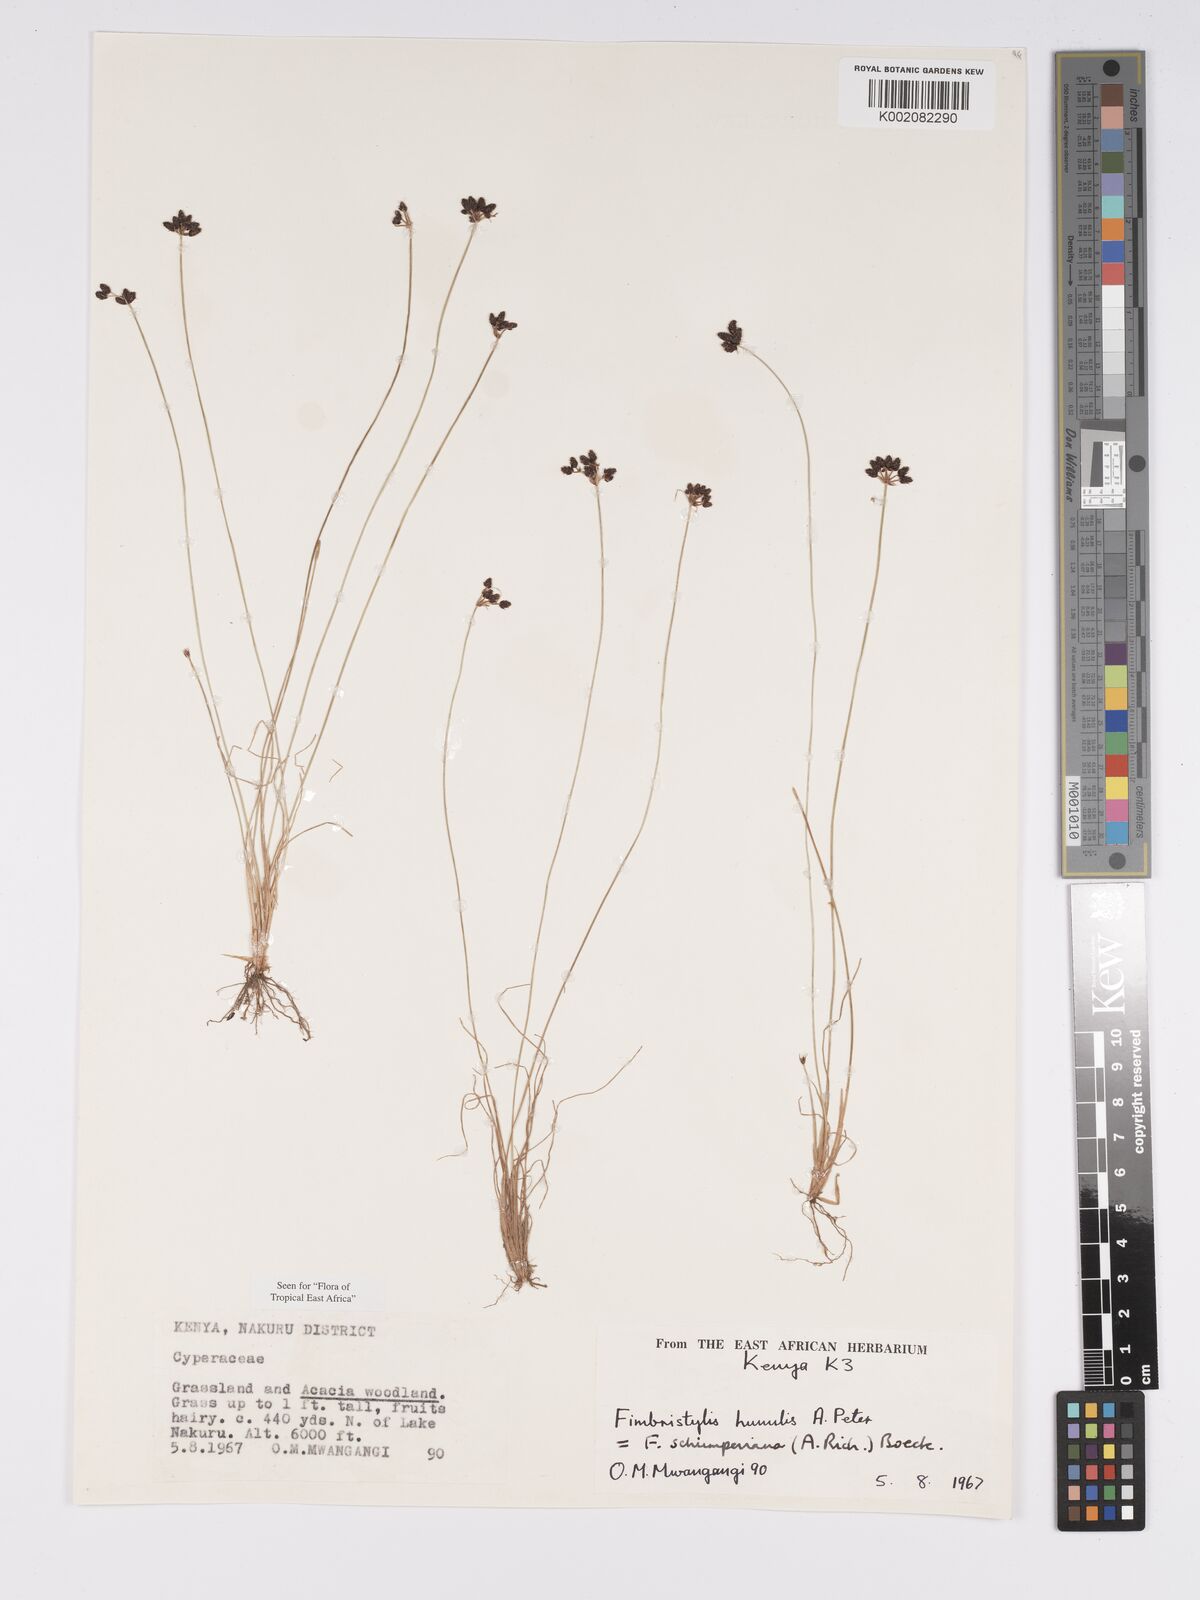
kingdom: Plantae
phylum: Tracheophyta
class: Liliopsida
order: Poales
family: Cyperaceae
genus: Bulbostylis
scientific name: Bulbostylis schimperiana
